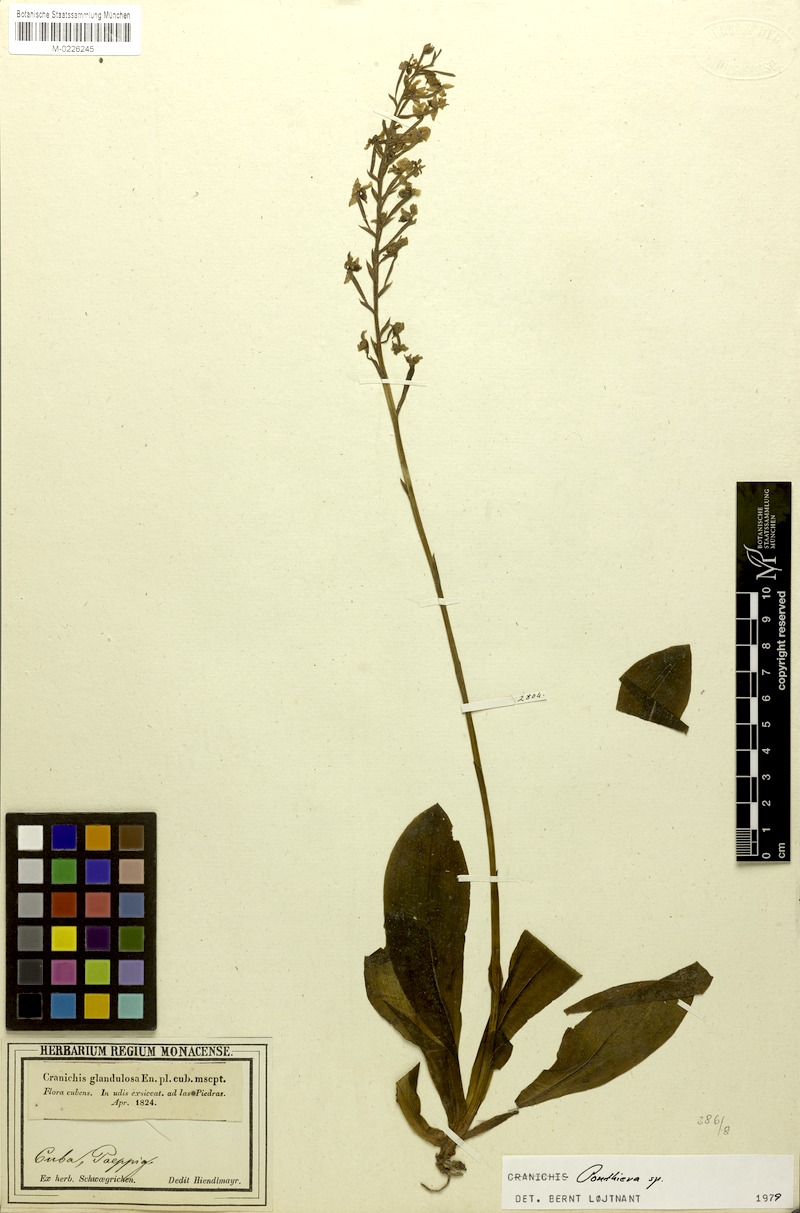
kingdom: Plantae
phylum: Tracheophyta
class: Liliopsida
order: Asparagales
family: Orchidaceae
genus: Ponthieva
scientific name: Ponthieva
